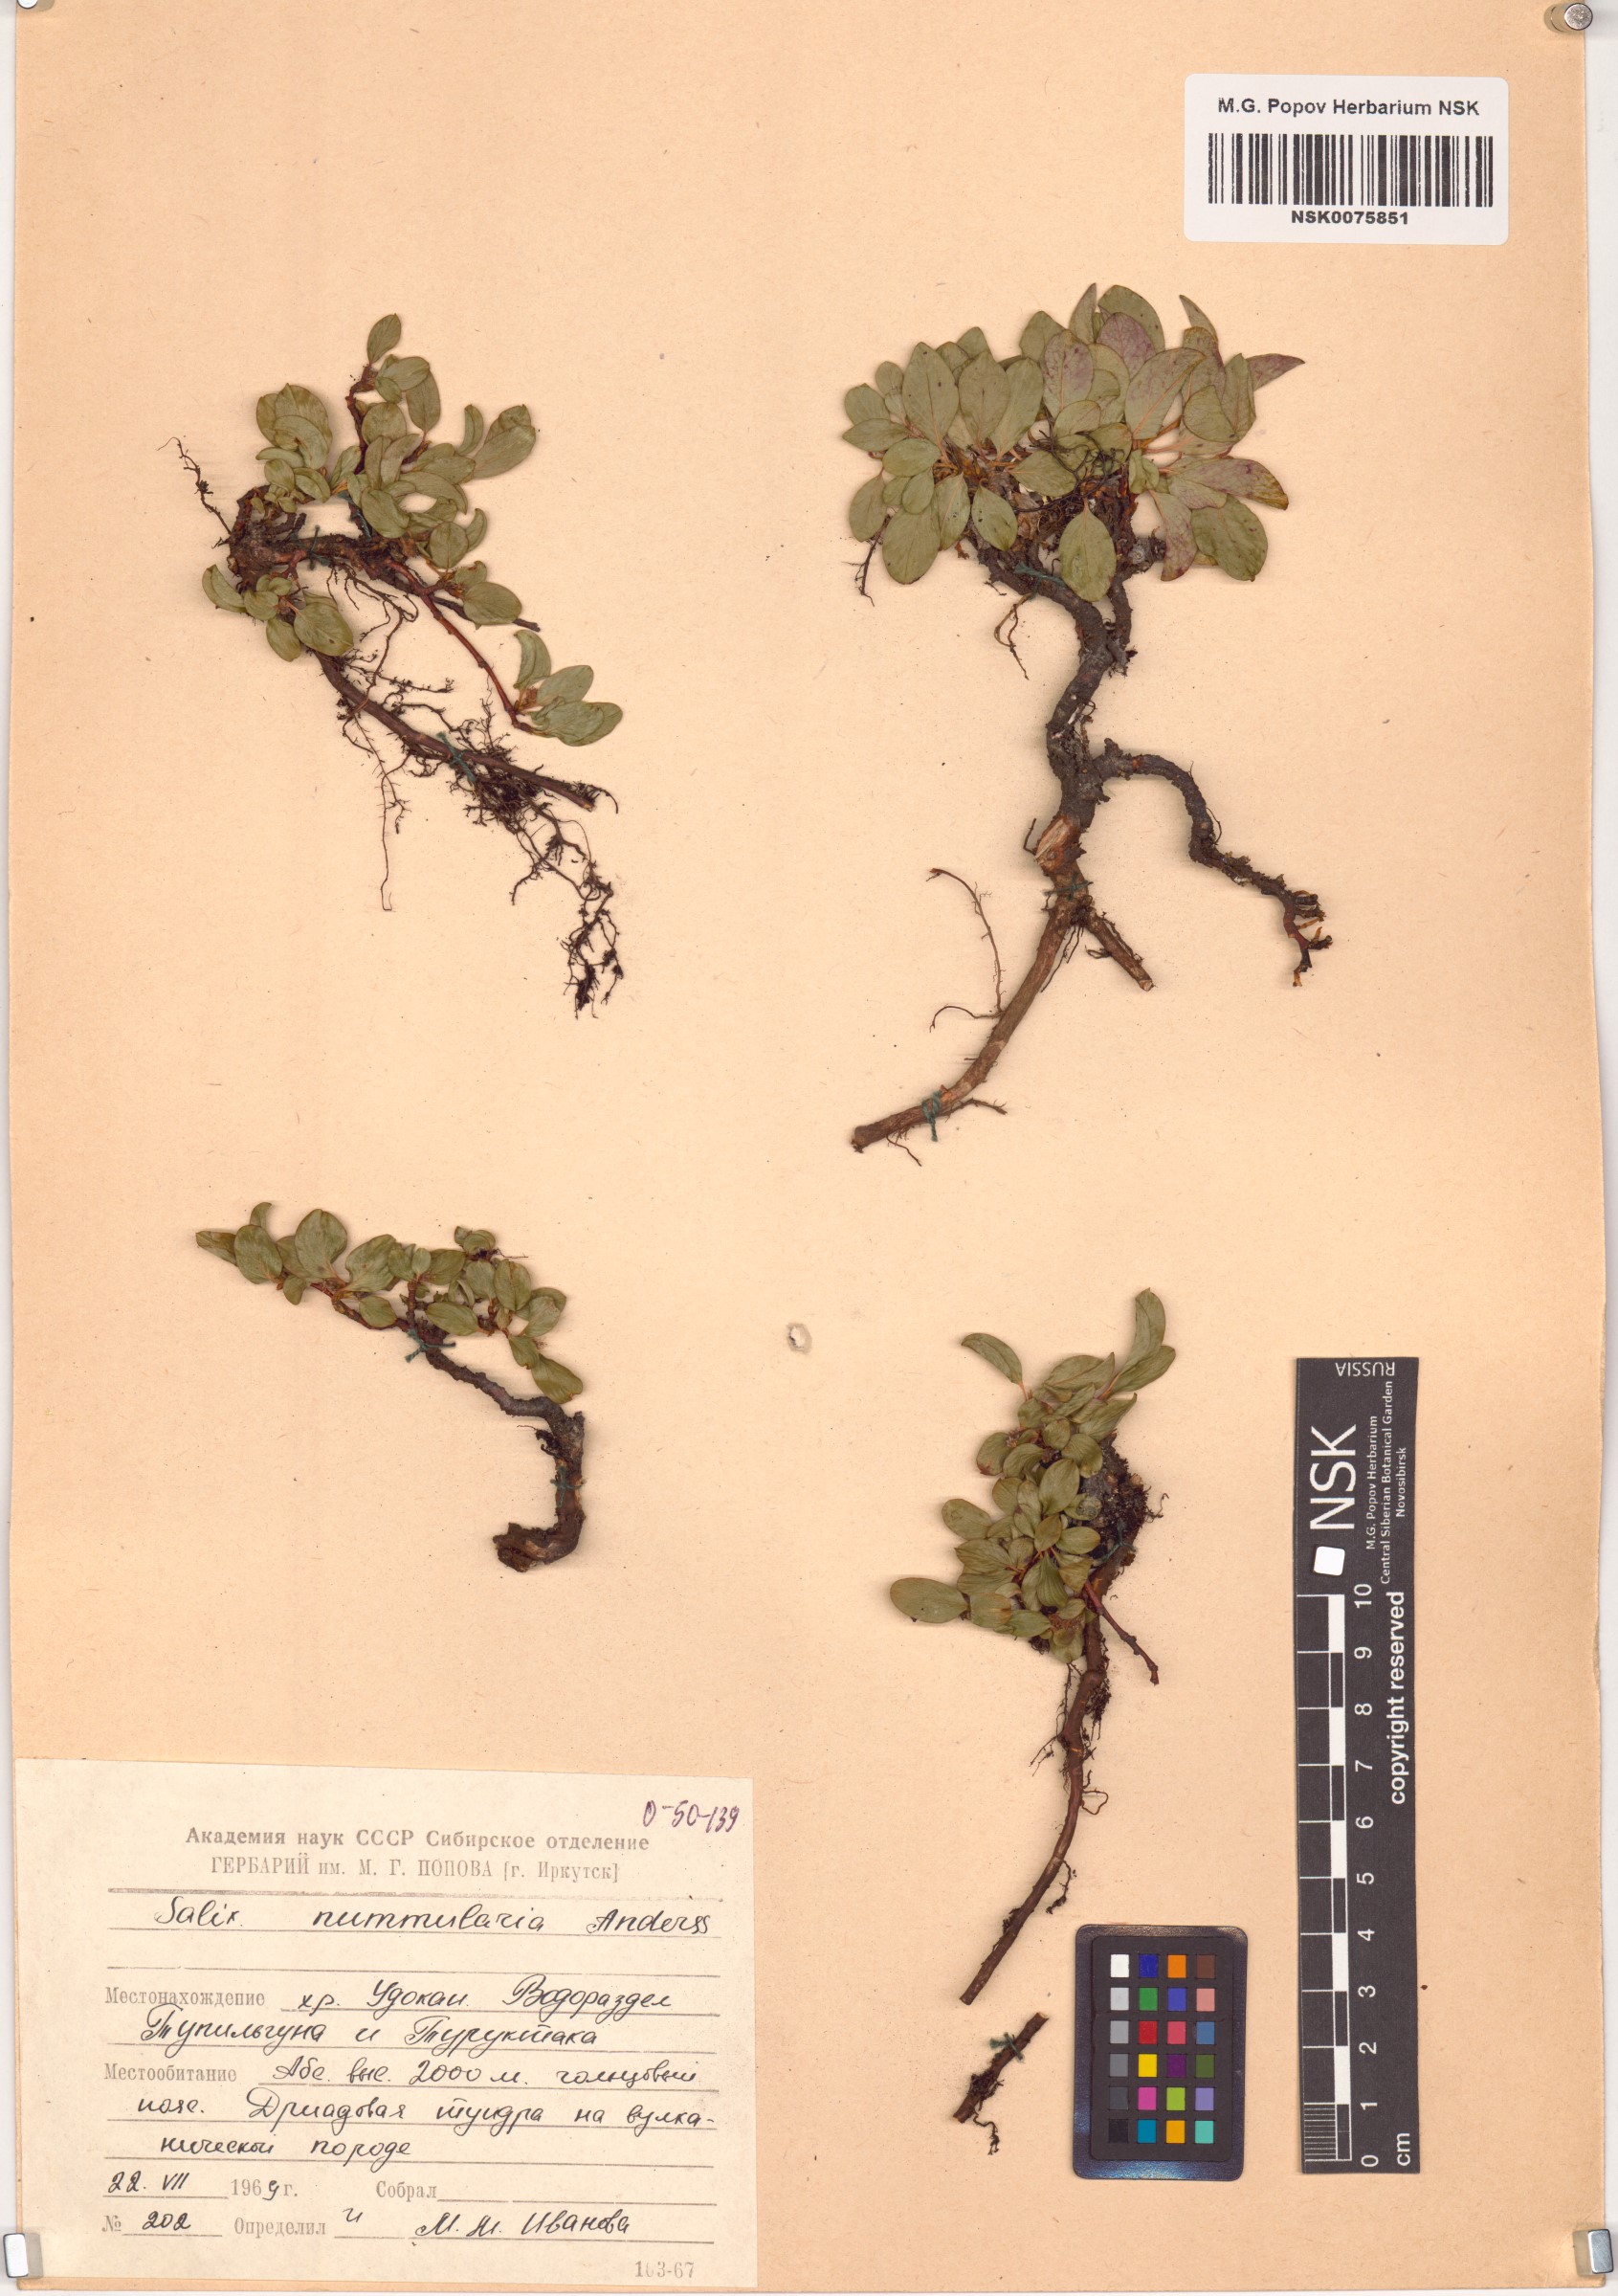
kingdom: Plantae
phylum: Tracheophyta
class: Magnoliopsida
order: Malpighiales
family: Salicaceae
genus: Salix
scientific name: Salix nummularia
